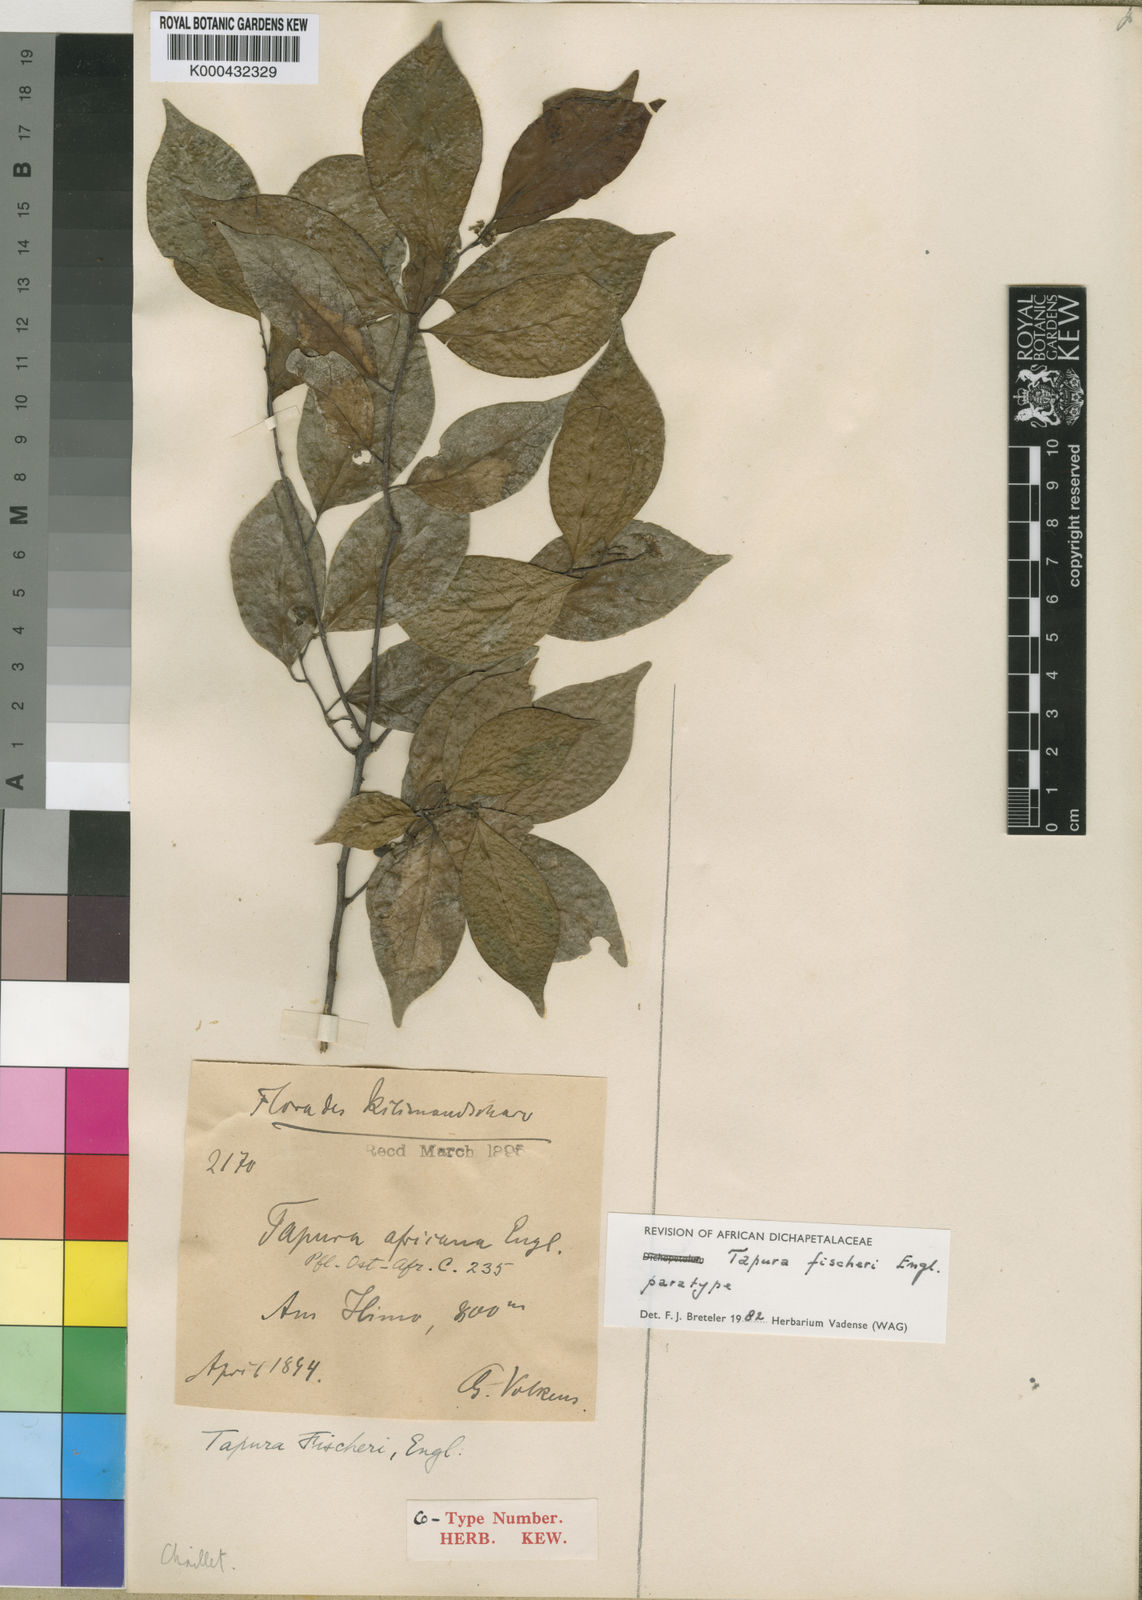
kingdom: Plantae
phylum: Tracheophyta
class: Magnoliopsida
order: Malpighiales
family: Dichapetalaceae
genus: Tapura
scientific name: Tapura fischeri
